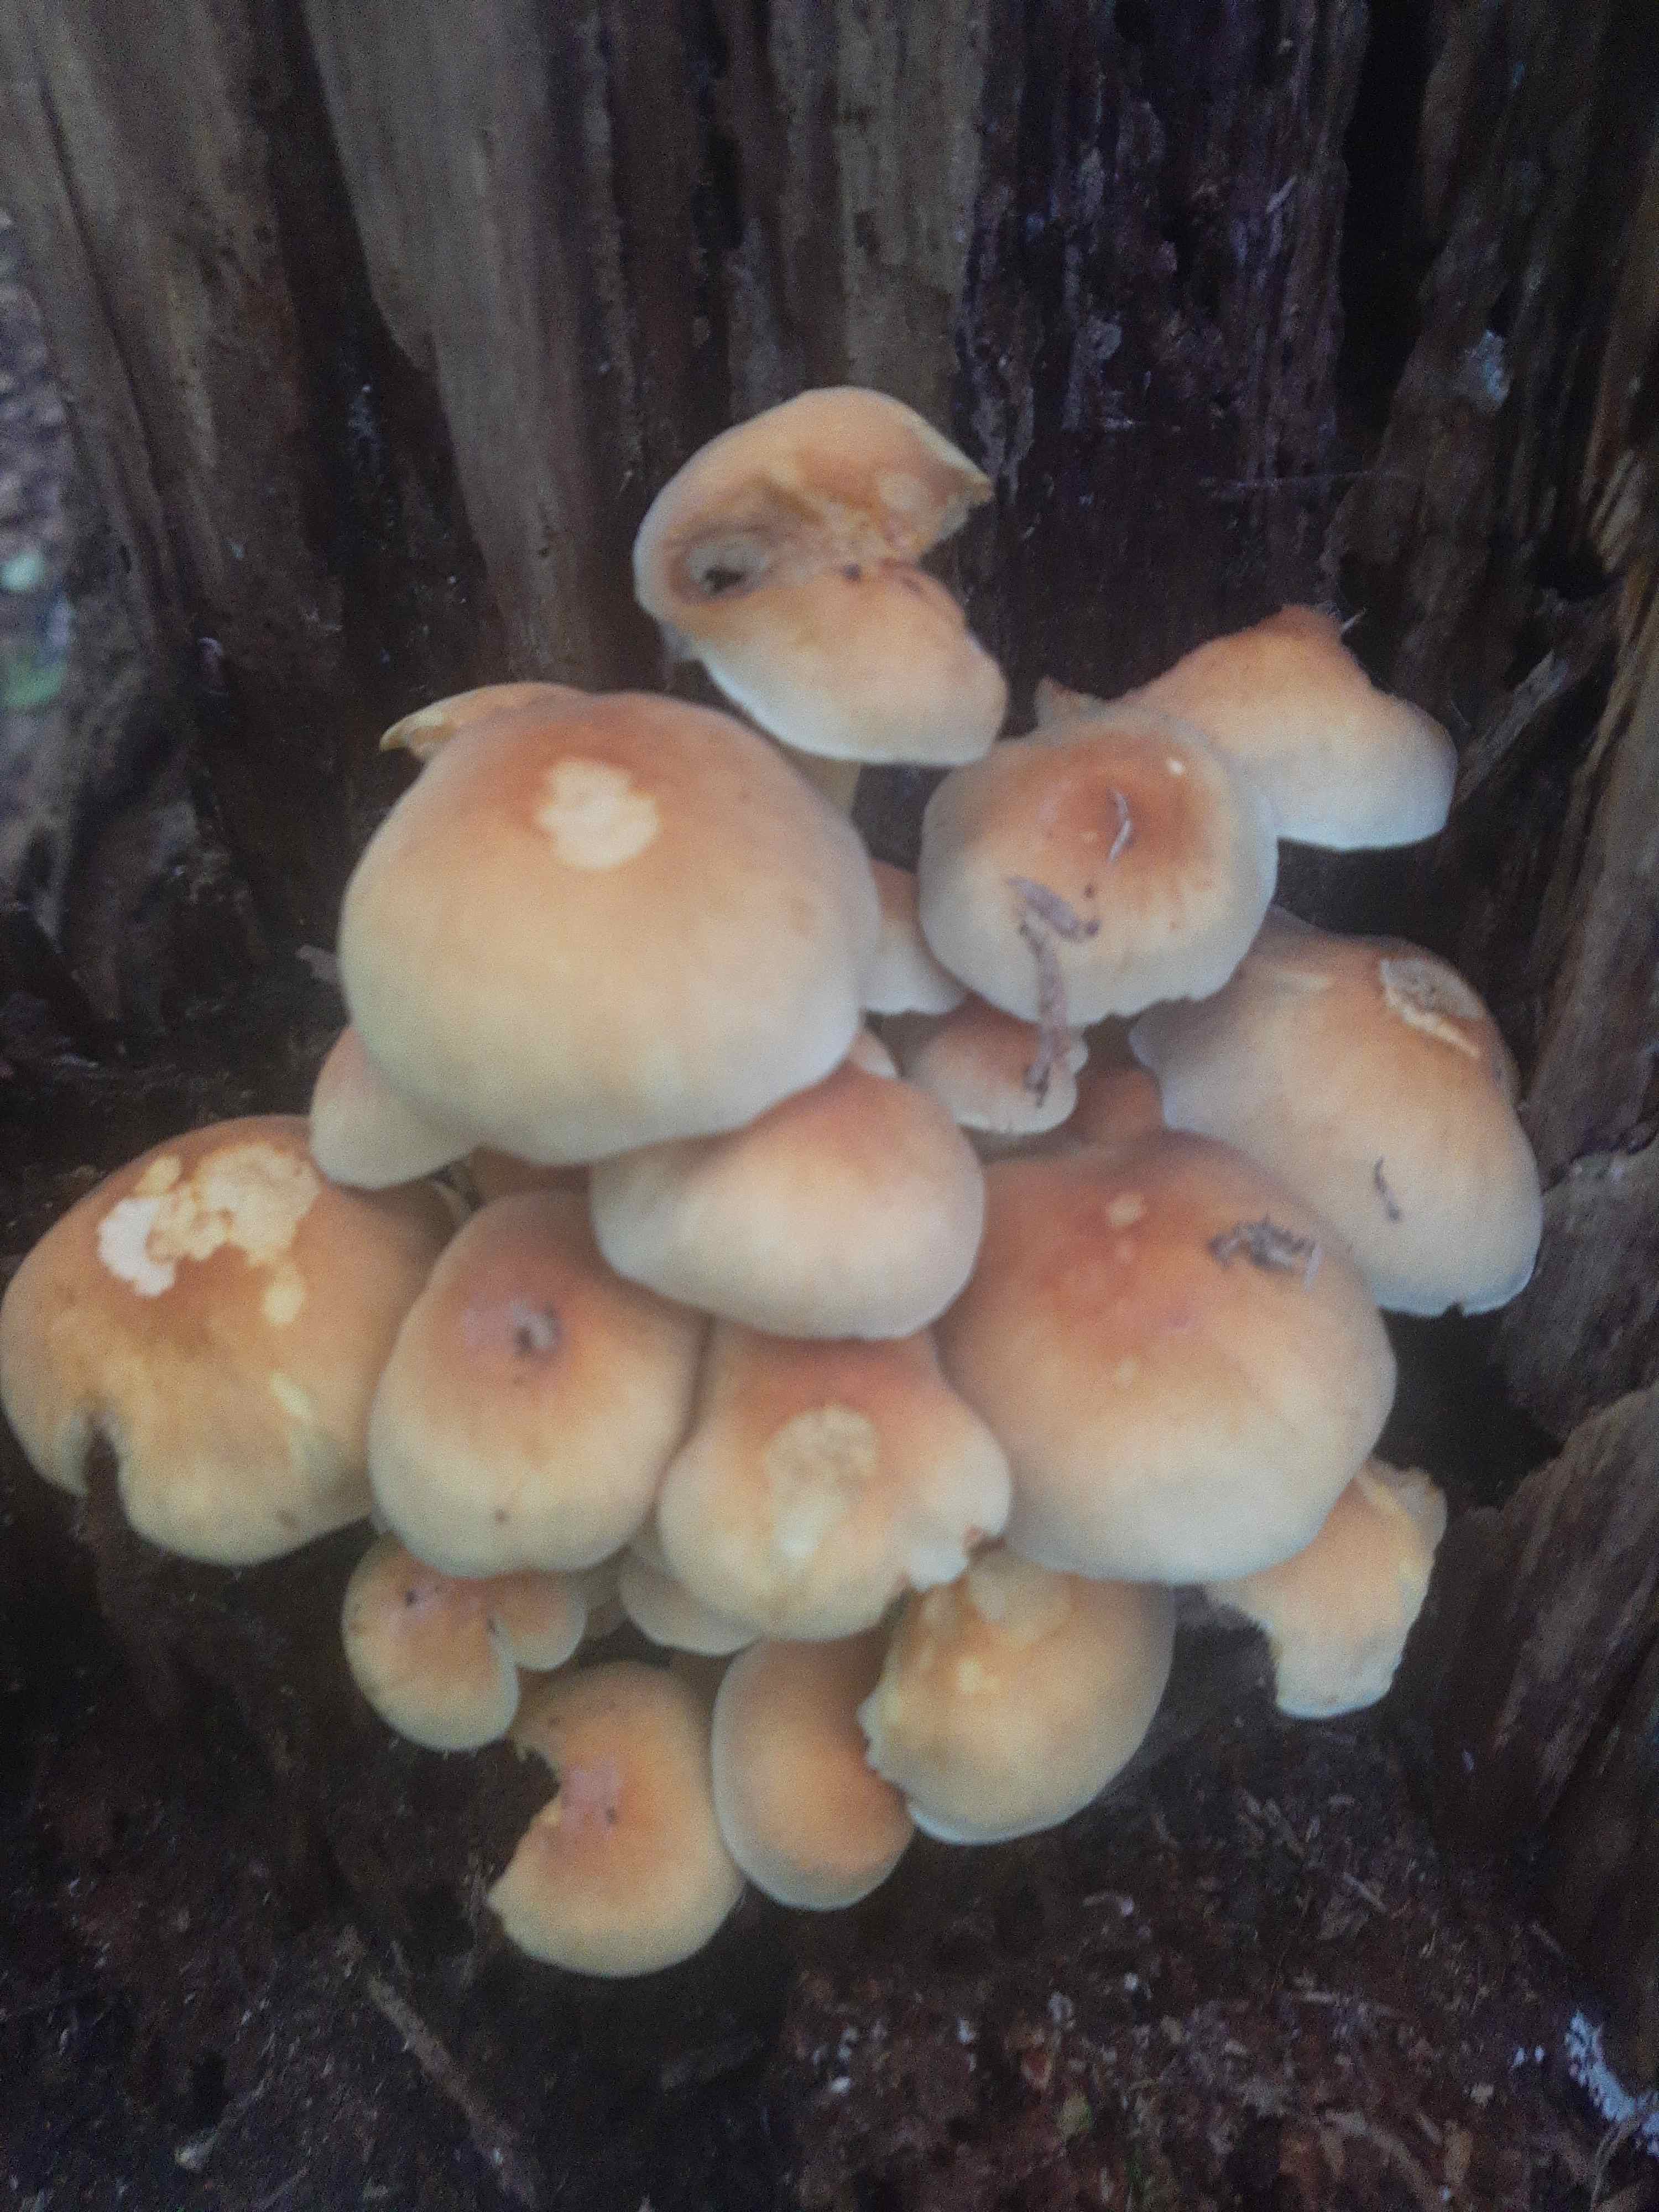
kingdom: Fungi
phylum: Basidiomycota
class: Agaricomycetes
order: Agaricales
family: Strophariaceae
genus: Hypholoma
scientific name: Hypholoma fasciculare
